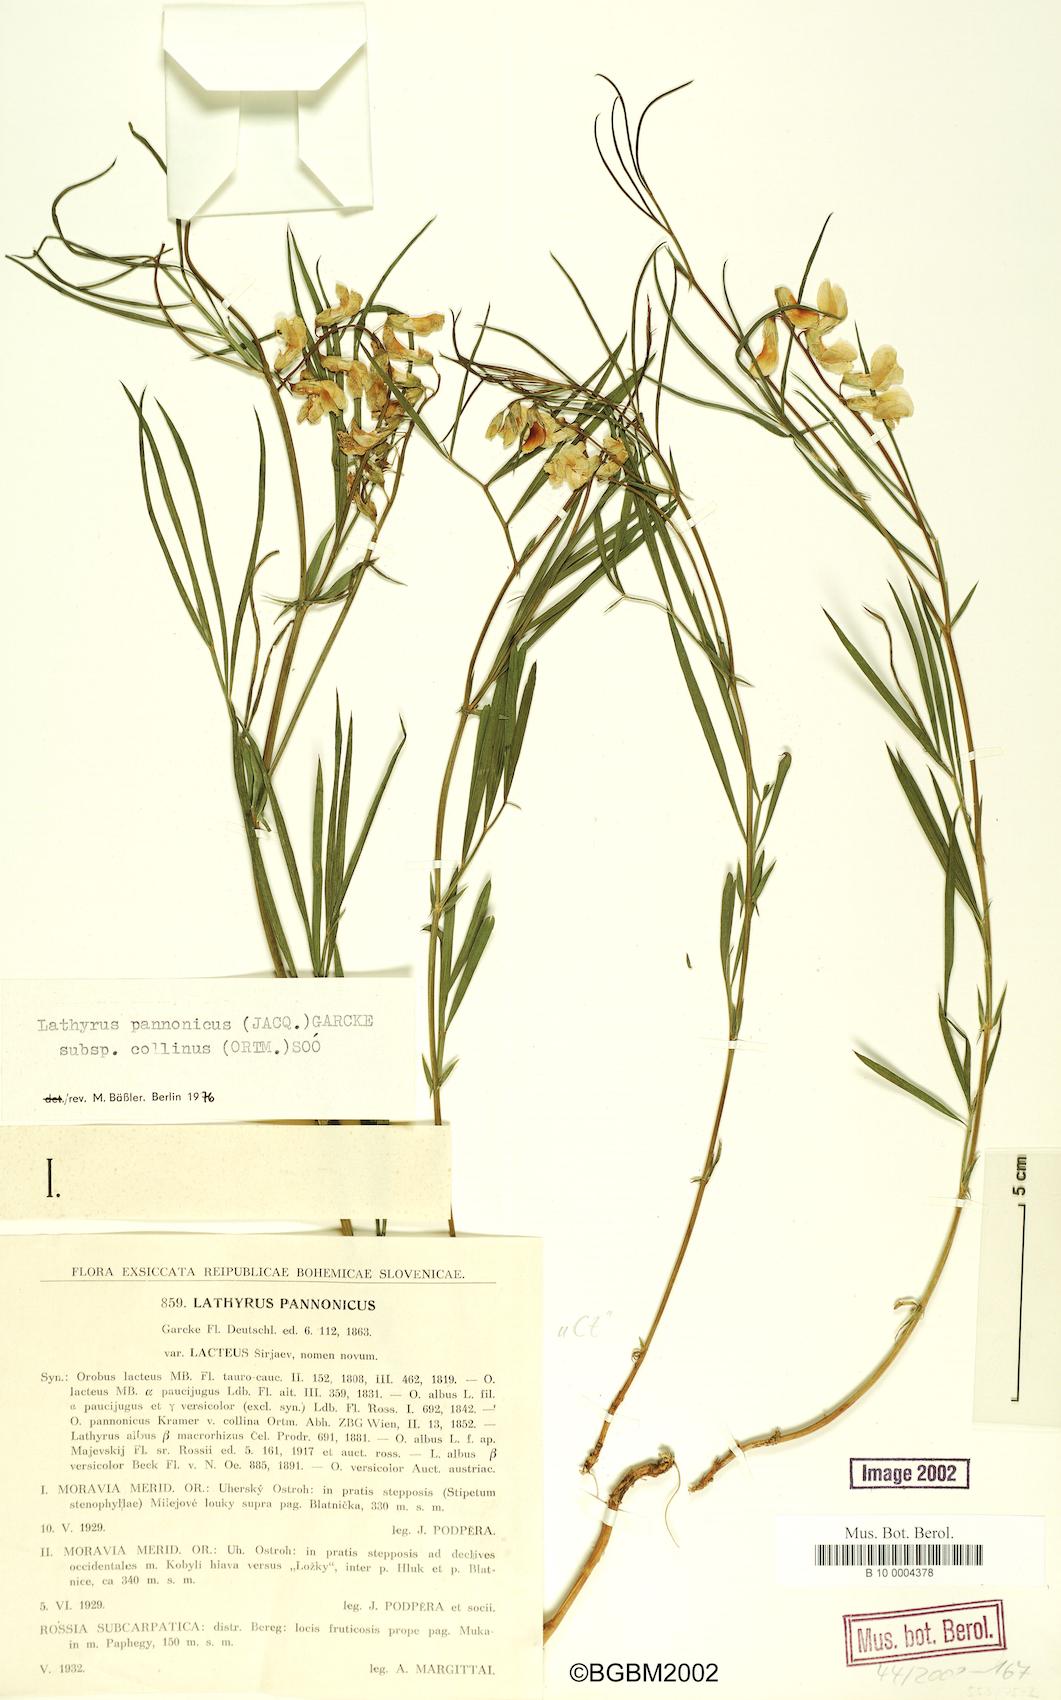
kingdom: Plantae
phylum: Tracheophyta
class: Magnoliopsida
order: Fabales
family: Fabaceae
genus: Lathyrus
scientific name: Lathyrus pannonicus
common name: Pea
